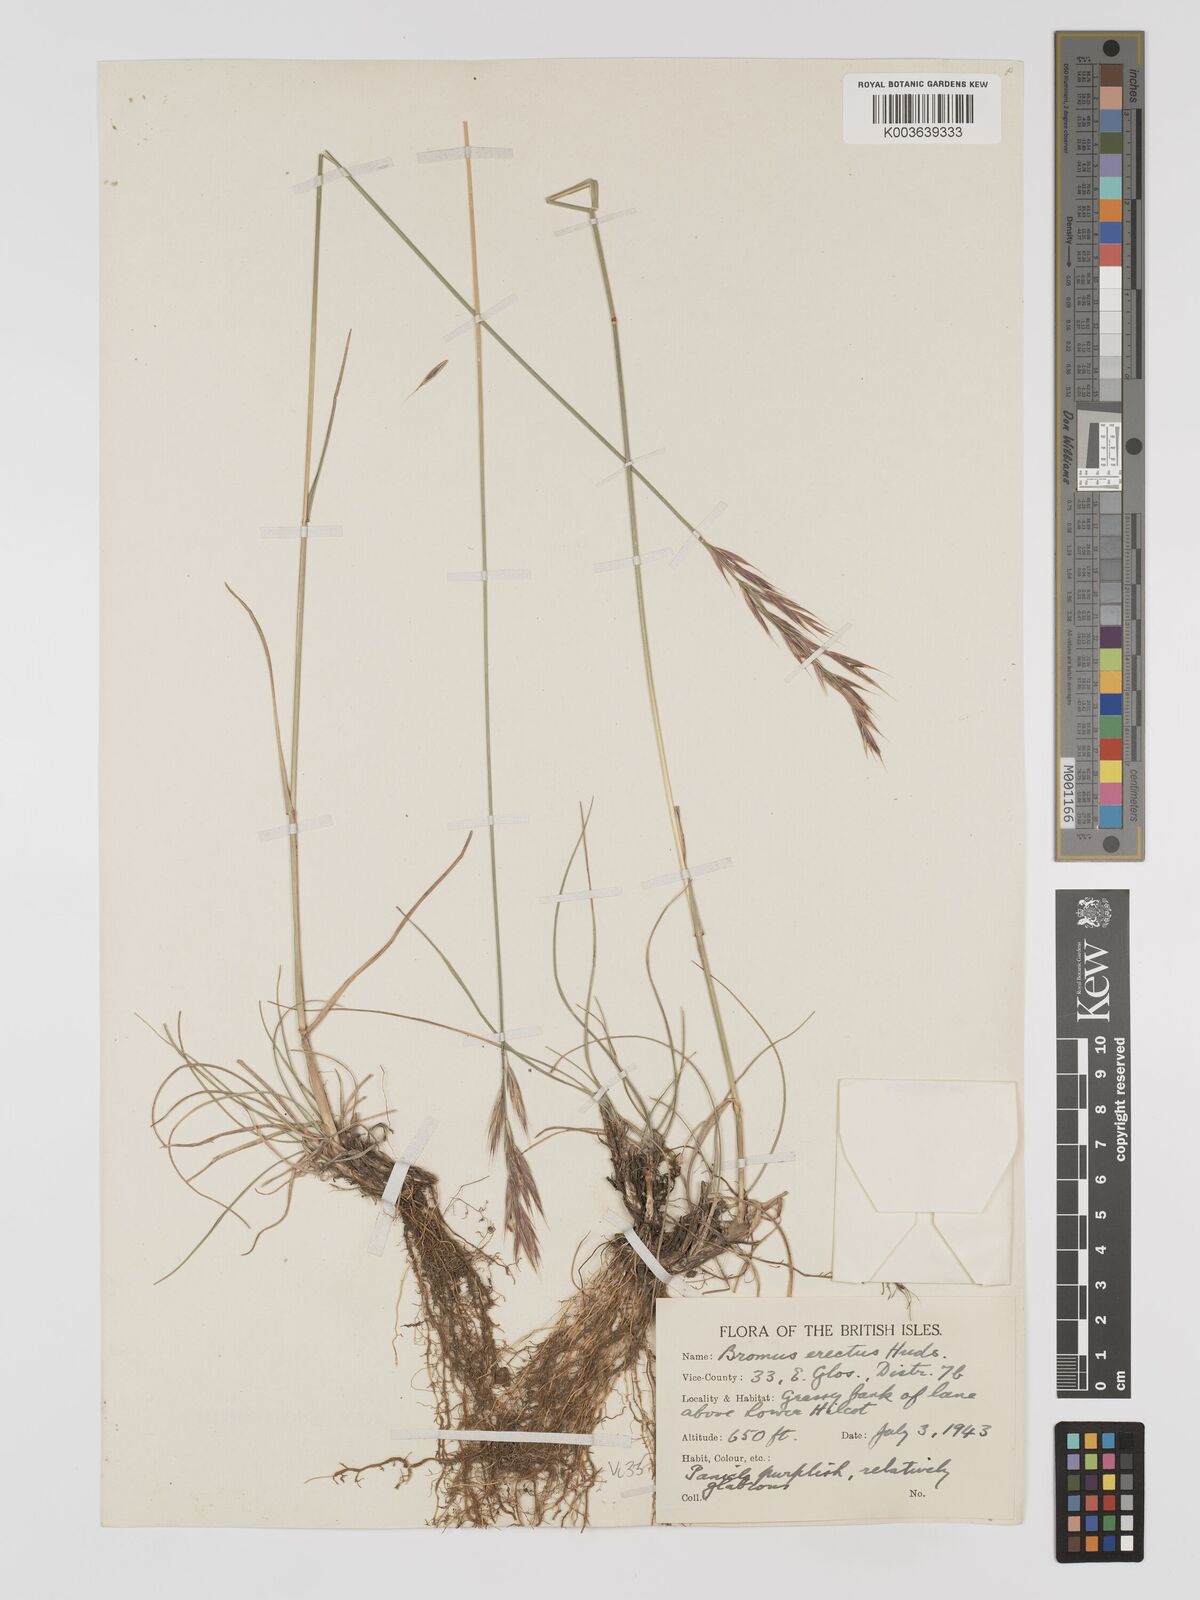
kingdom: Plantae
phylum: Tracheophyta
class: Liliopsida
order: Poales
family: Poaceae
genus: Bromus
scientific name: Bromus erectus
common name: Erect brome
